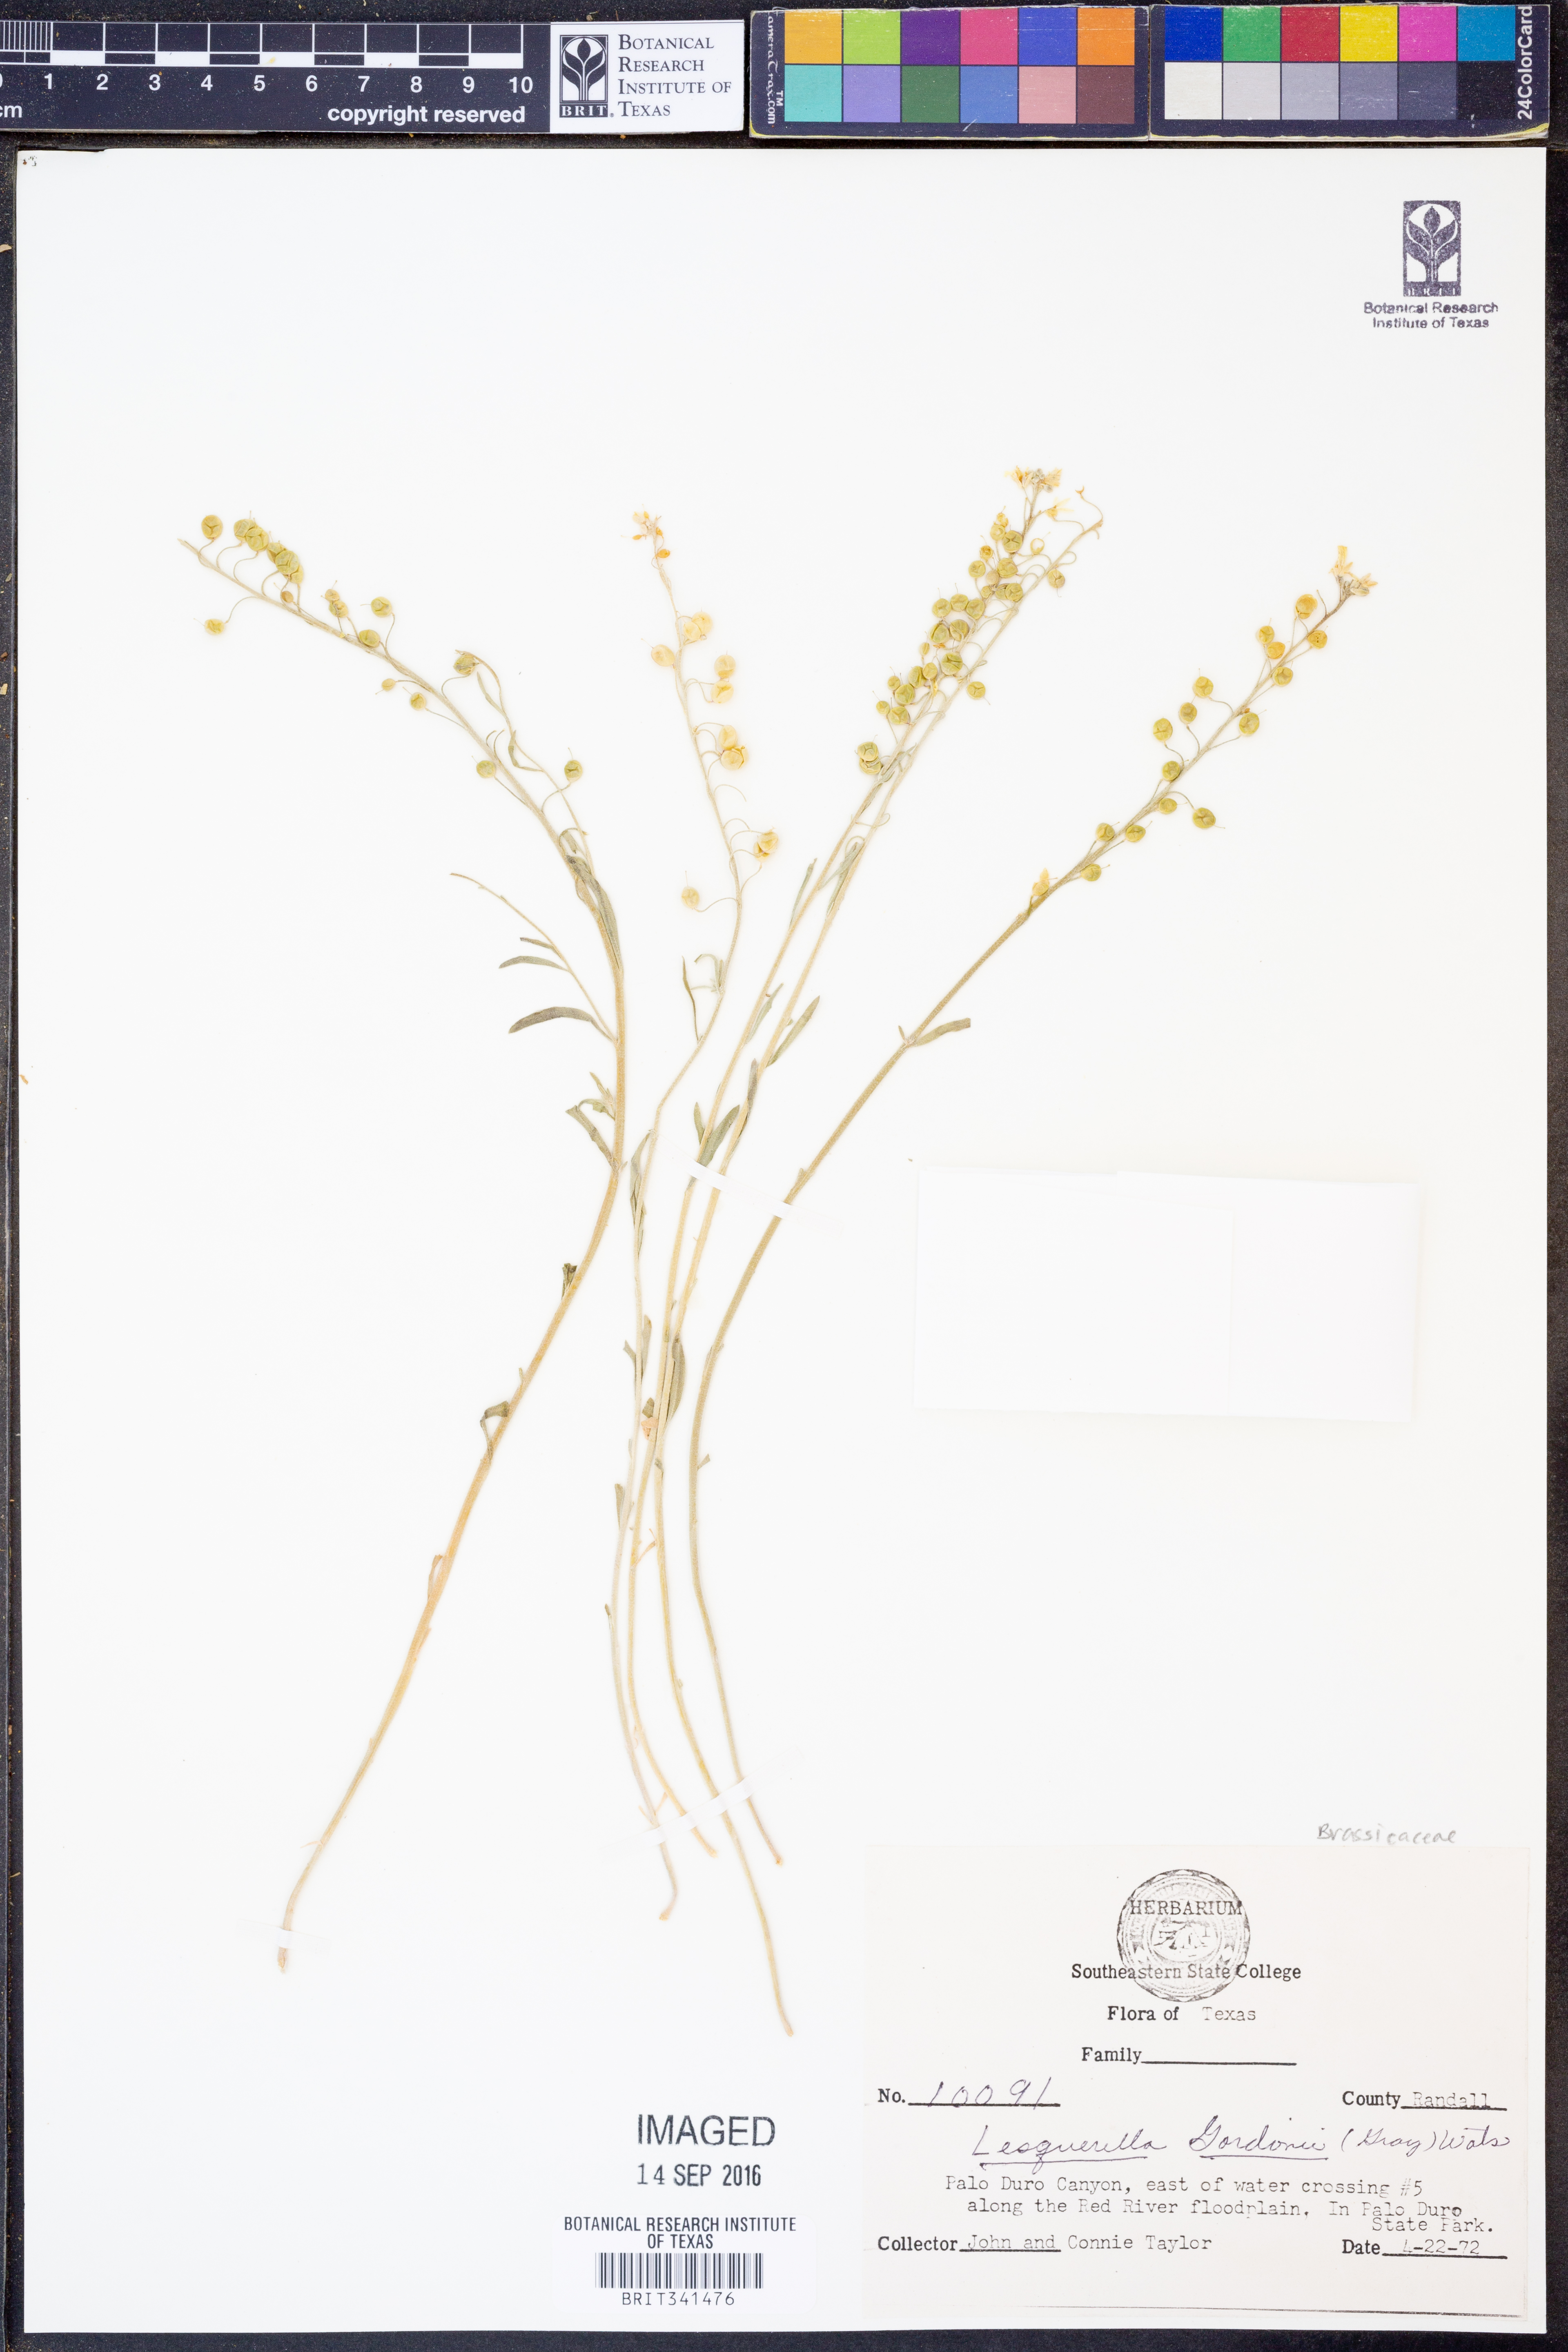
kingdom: Plantae
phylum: Tracheophyta
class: Magnoliopsida
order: Brassicales
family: Brassicaceae
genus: Physaria
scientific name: Physaria gordonii
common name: Gordon's bladderpod
